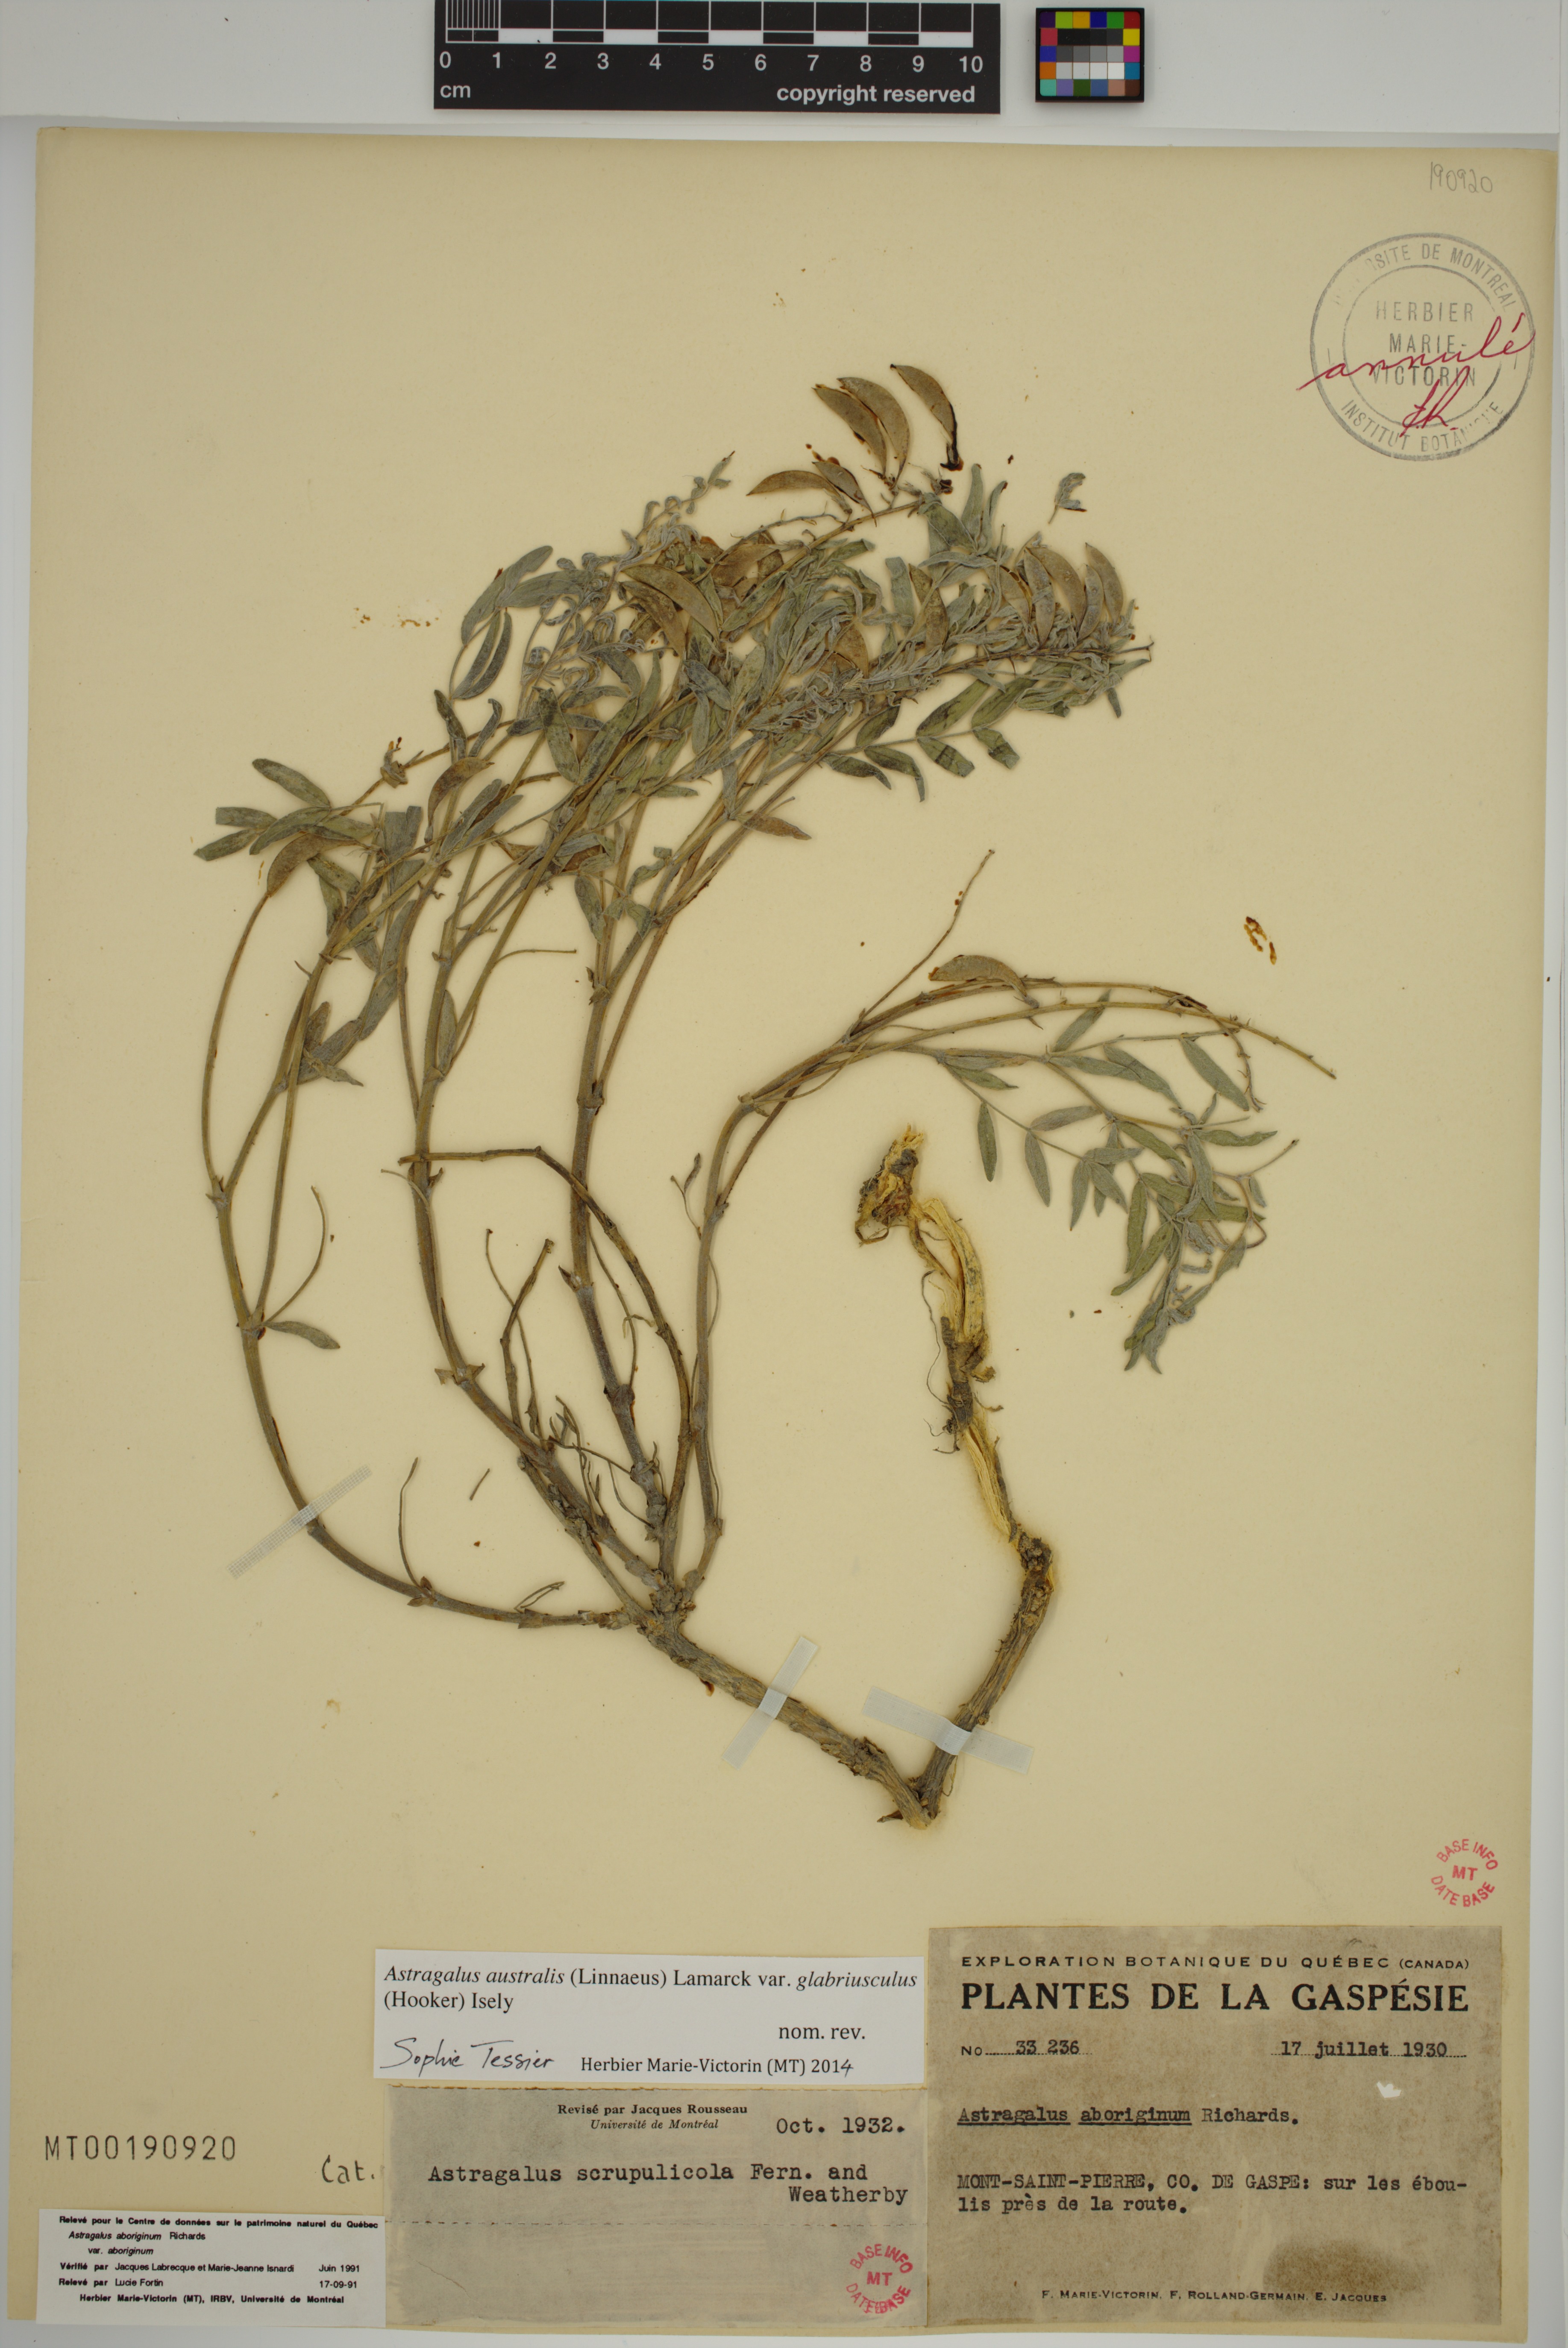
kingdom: Plantae
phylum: Tracheophyta
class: Magnoliopsida
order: Fabales
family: Fabaceae
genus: Astragalus
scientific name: Astragalus aboriginorum
